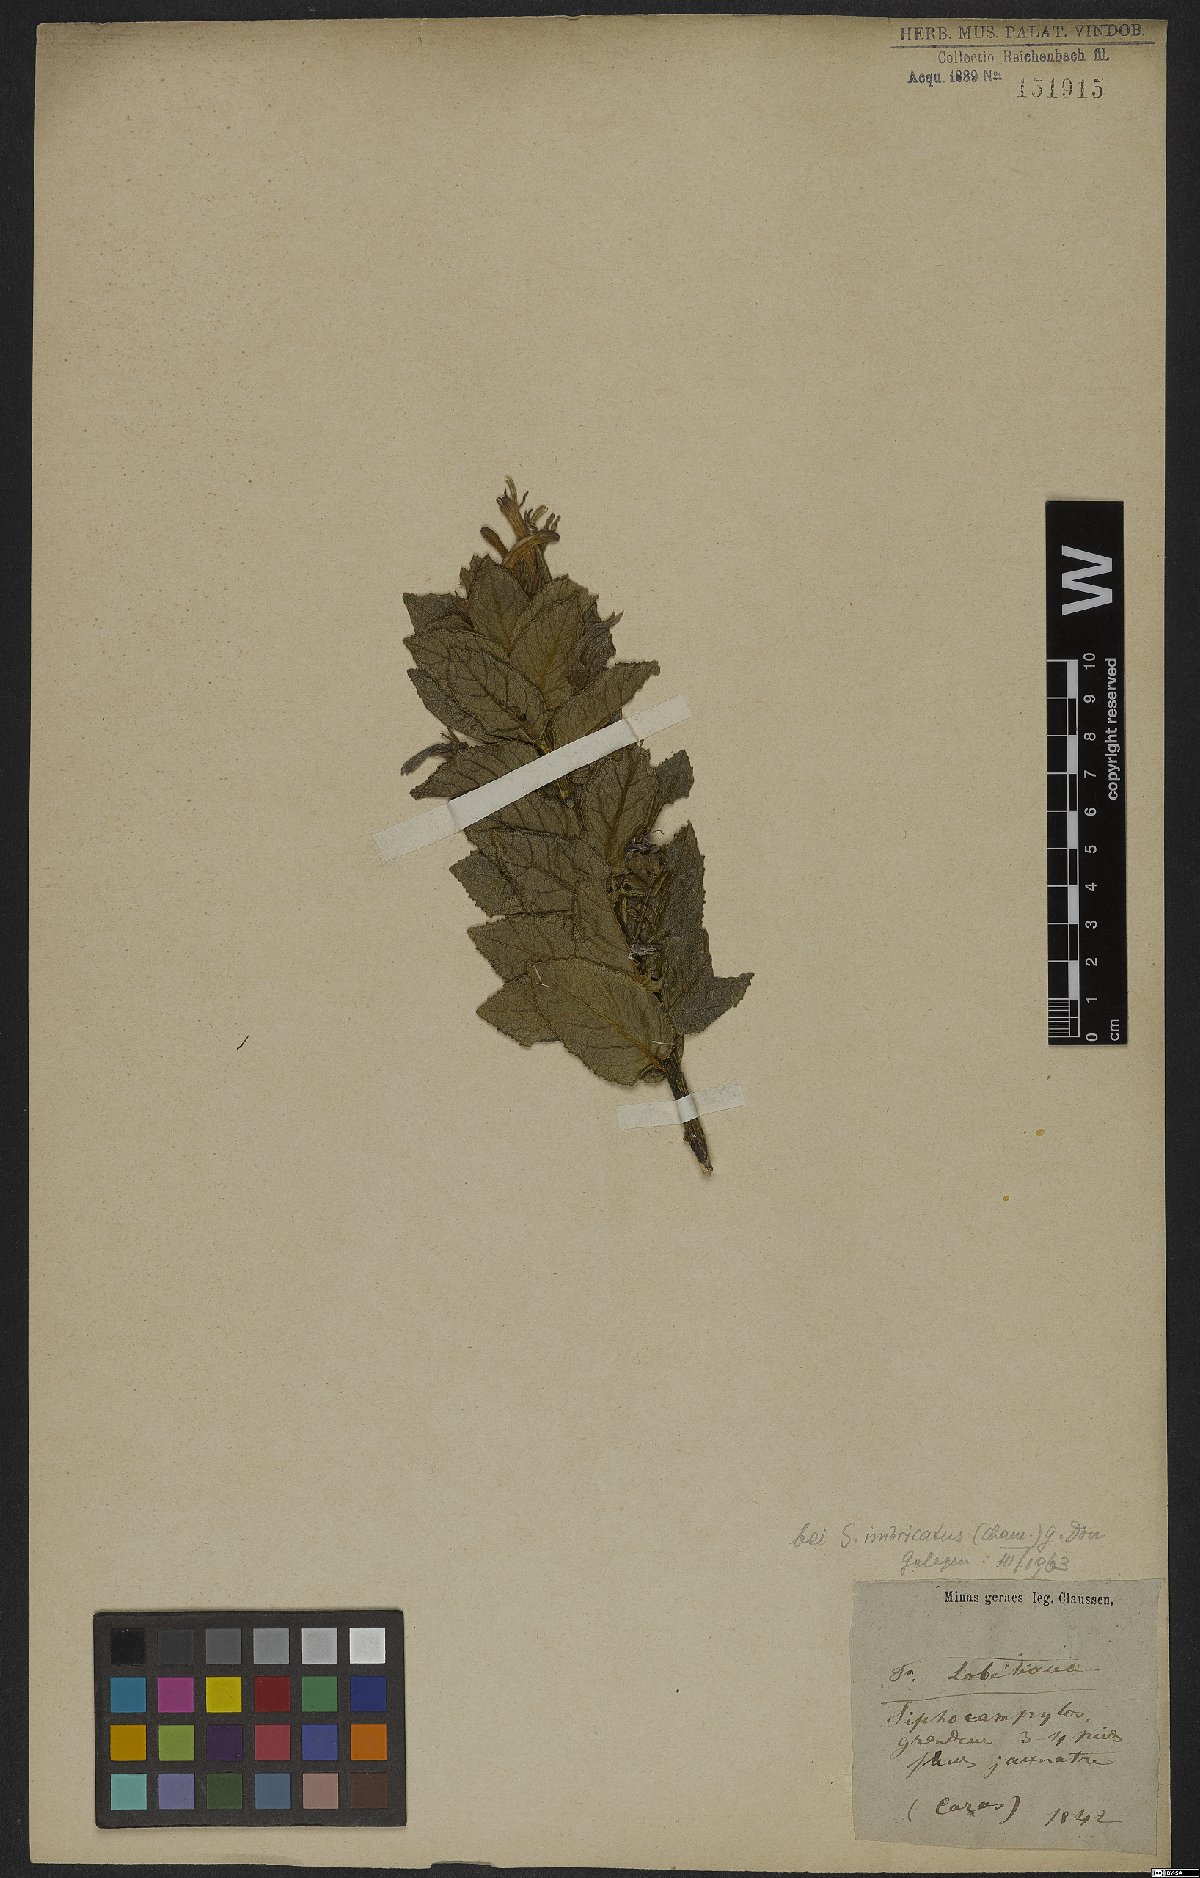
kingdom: Plantae
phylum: Tracheophyta
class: Magnoliopsida
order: Asterales
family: Campanulaceae
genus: Siphocampylus
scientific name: Siphocampylus imbricatus
